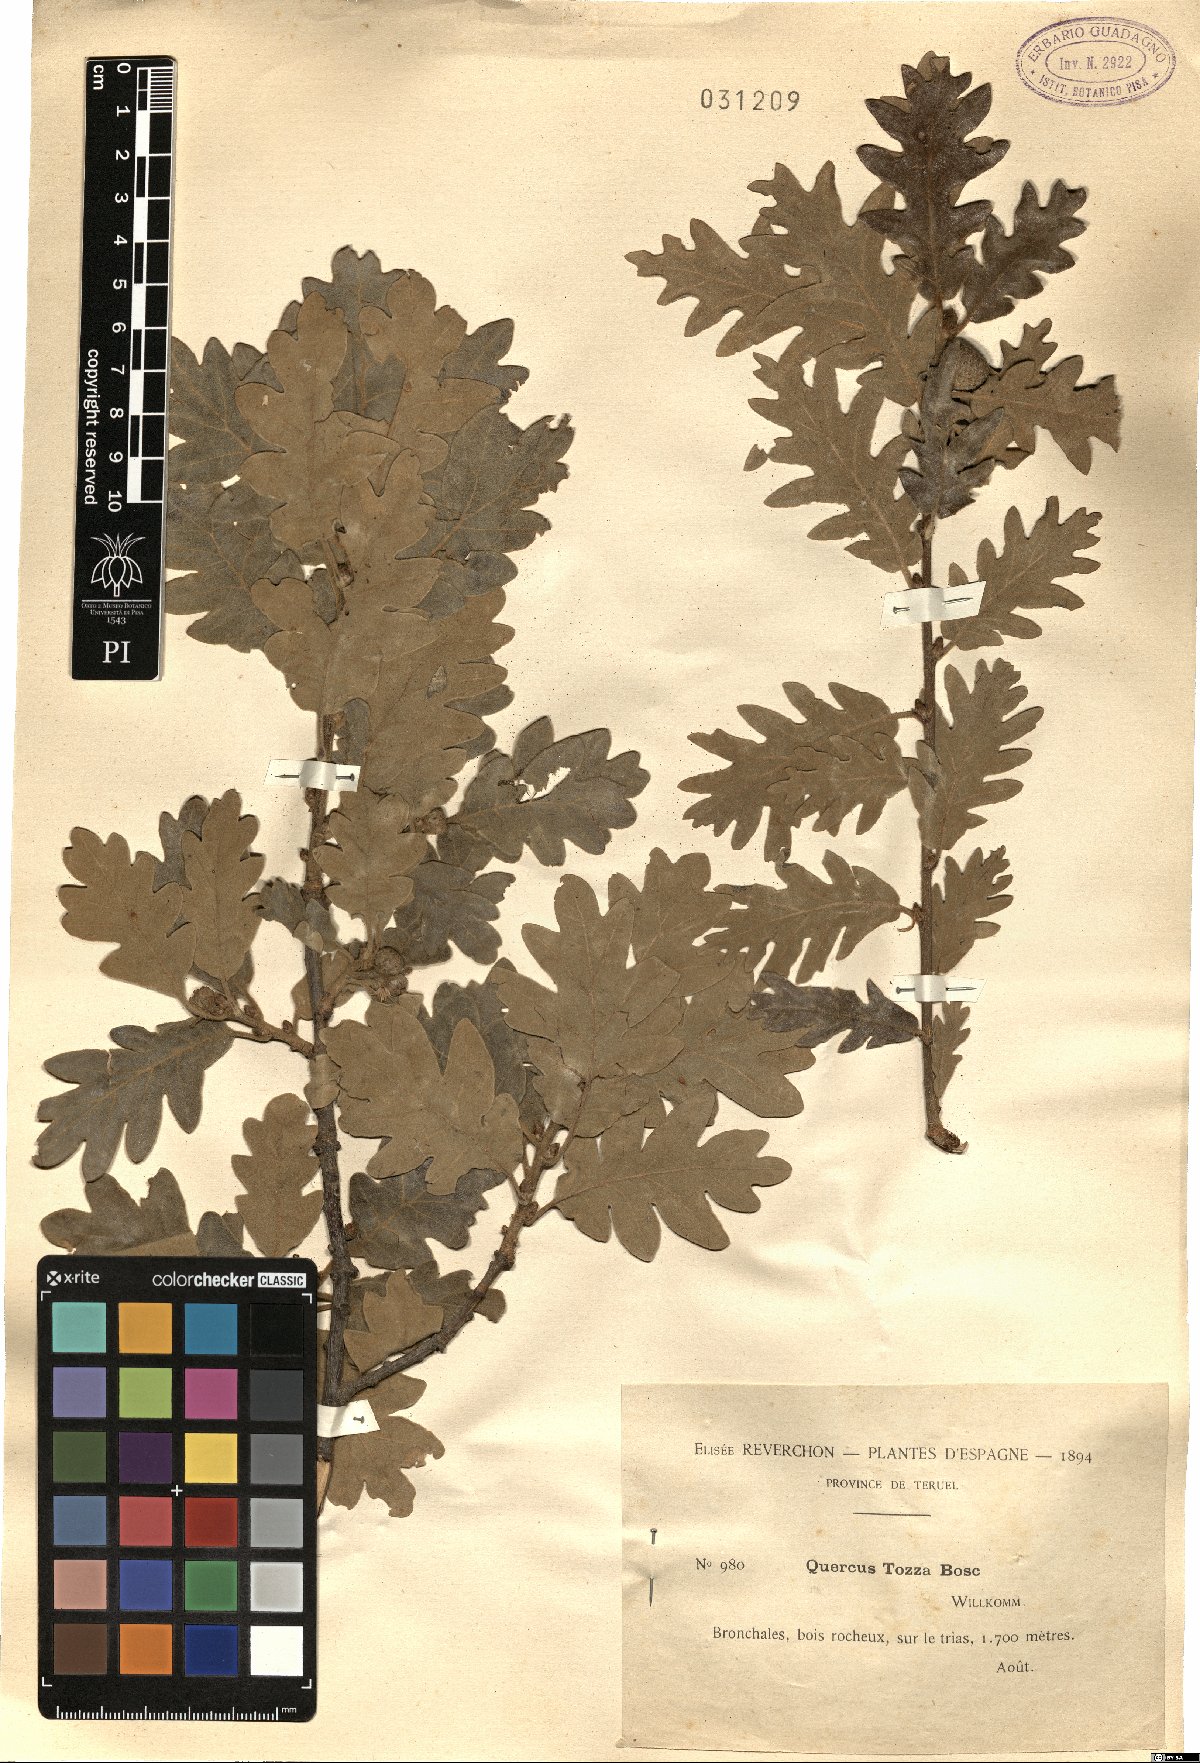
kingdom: Plantae
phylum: Tracheophyta
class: Magnoliopsida
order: Fagales
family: Fagaceae
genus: Quercus
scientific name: Quercus pyrenaica
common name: Pyrenean oak
